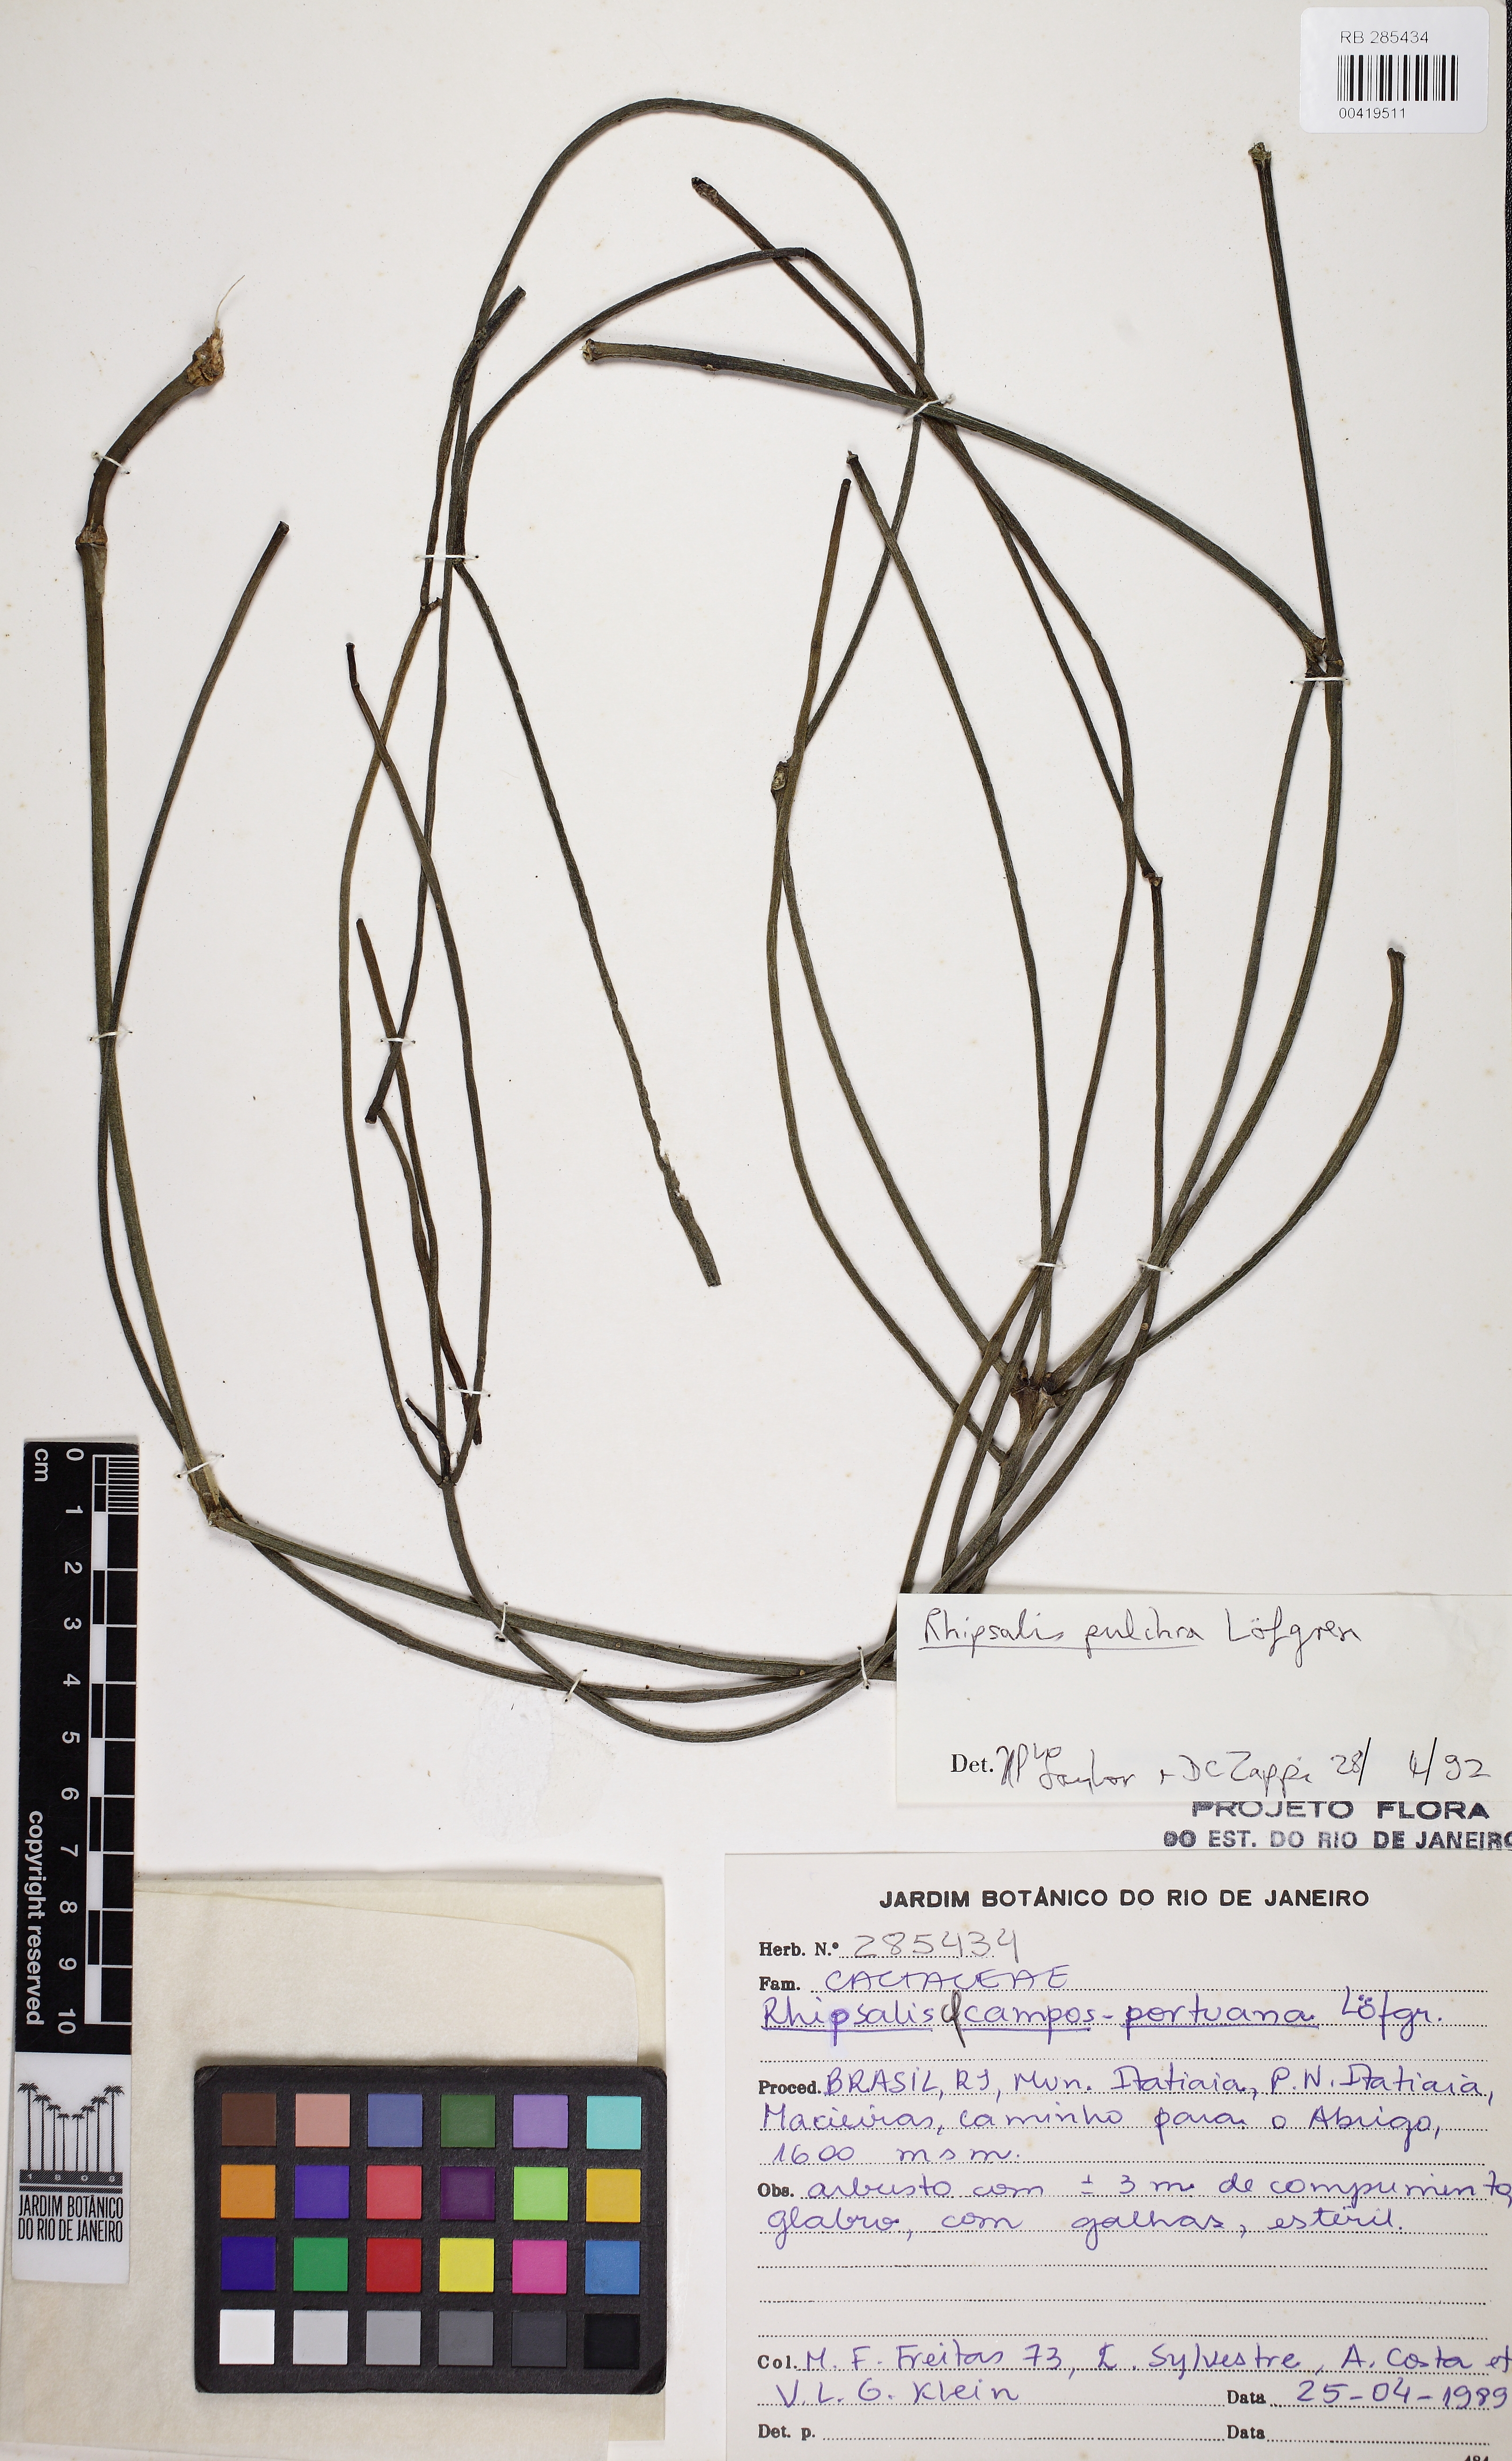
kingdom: Plantae
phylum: Tracheophyta
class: Magnoliopsida
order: Caryophyllales
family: Cactaceae
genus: Rhipsalis
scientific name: Rhipsalis campos-portoana
